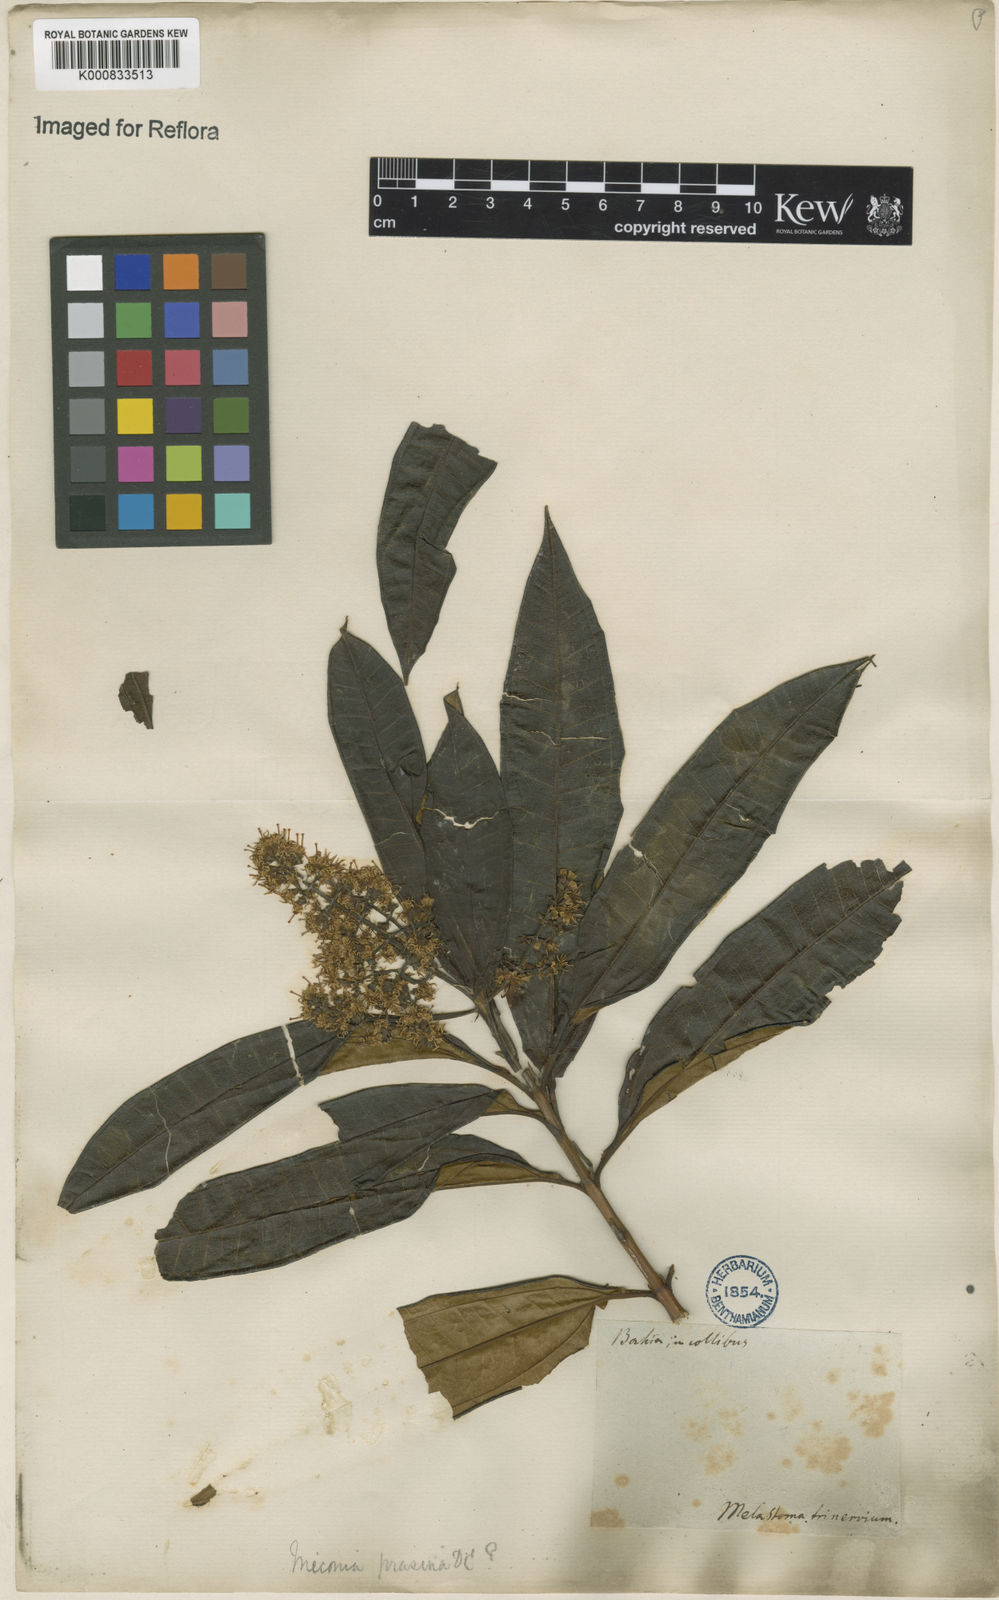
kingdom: Plantae
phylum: Tracheophyta
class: Magnoliopsida
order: Myrtales
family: Melastomataceae
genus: Miconia
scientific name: Miconia prasina
